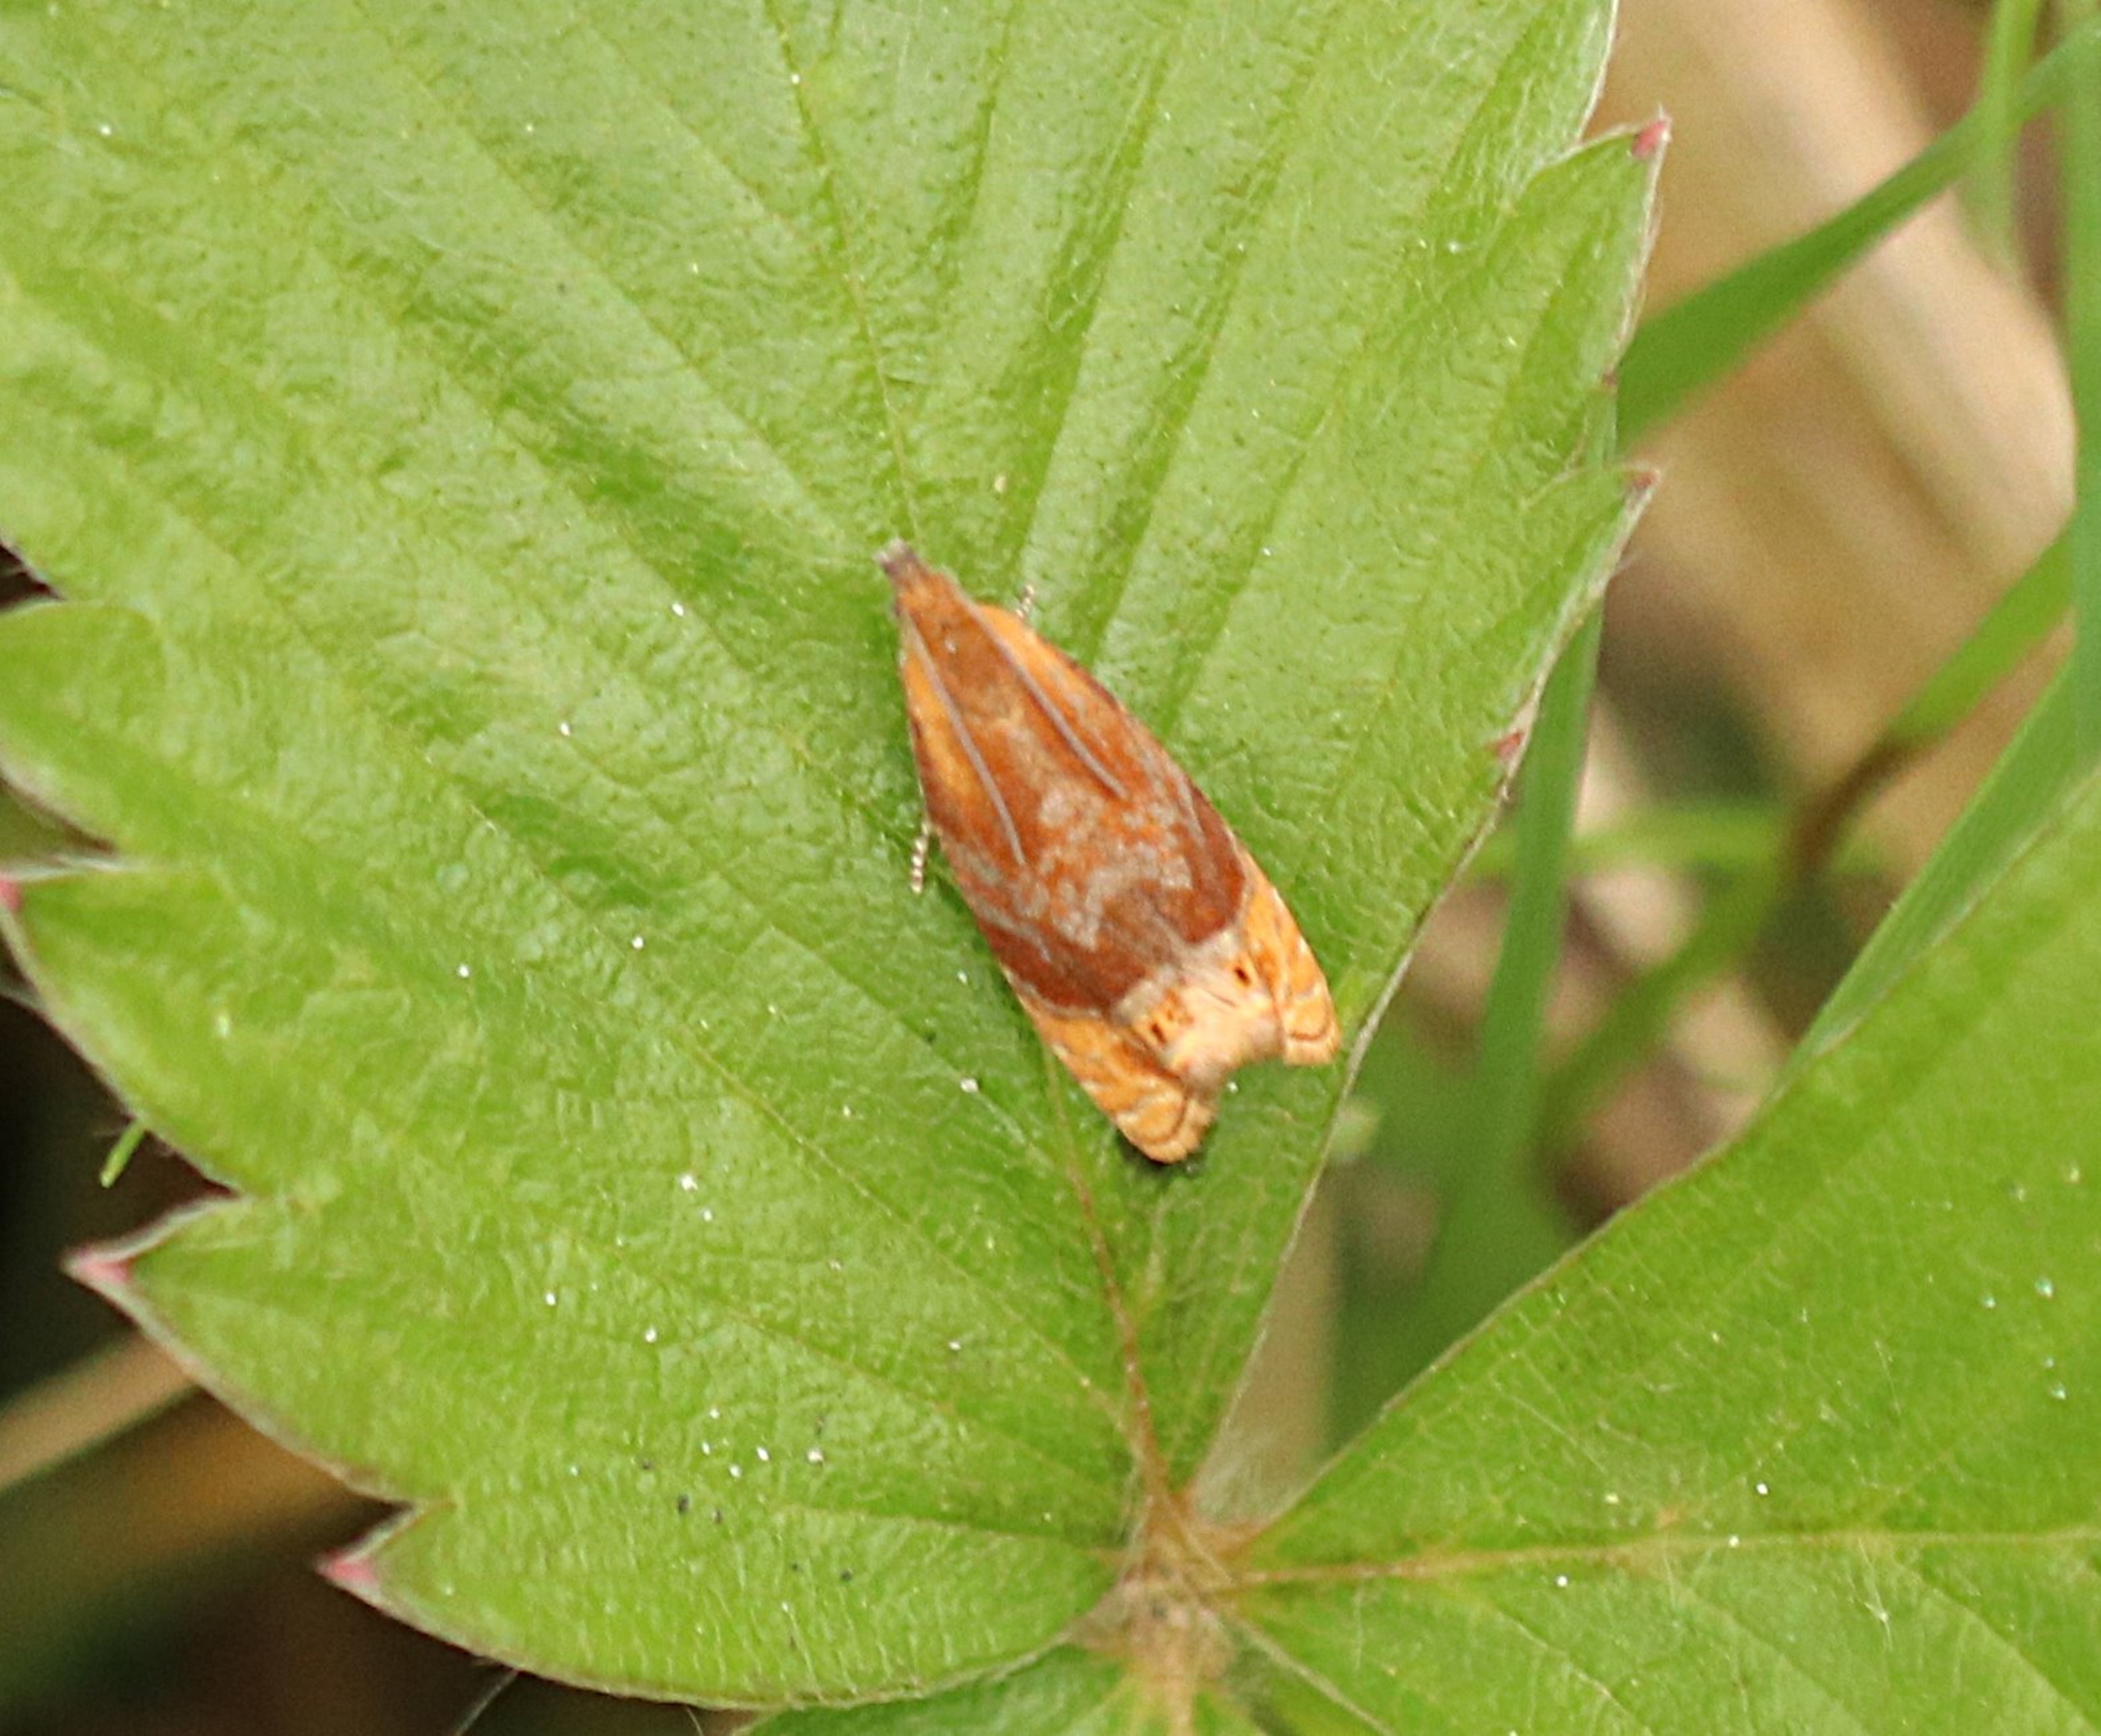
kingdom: Animalia
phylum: Arthropoda
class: Insecta
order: Lepidoptera
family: Tortricidae
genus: Eucosmomorpha
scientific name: Eucosmomorpha albersana
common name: Gedebladvikler
